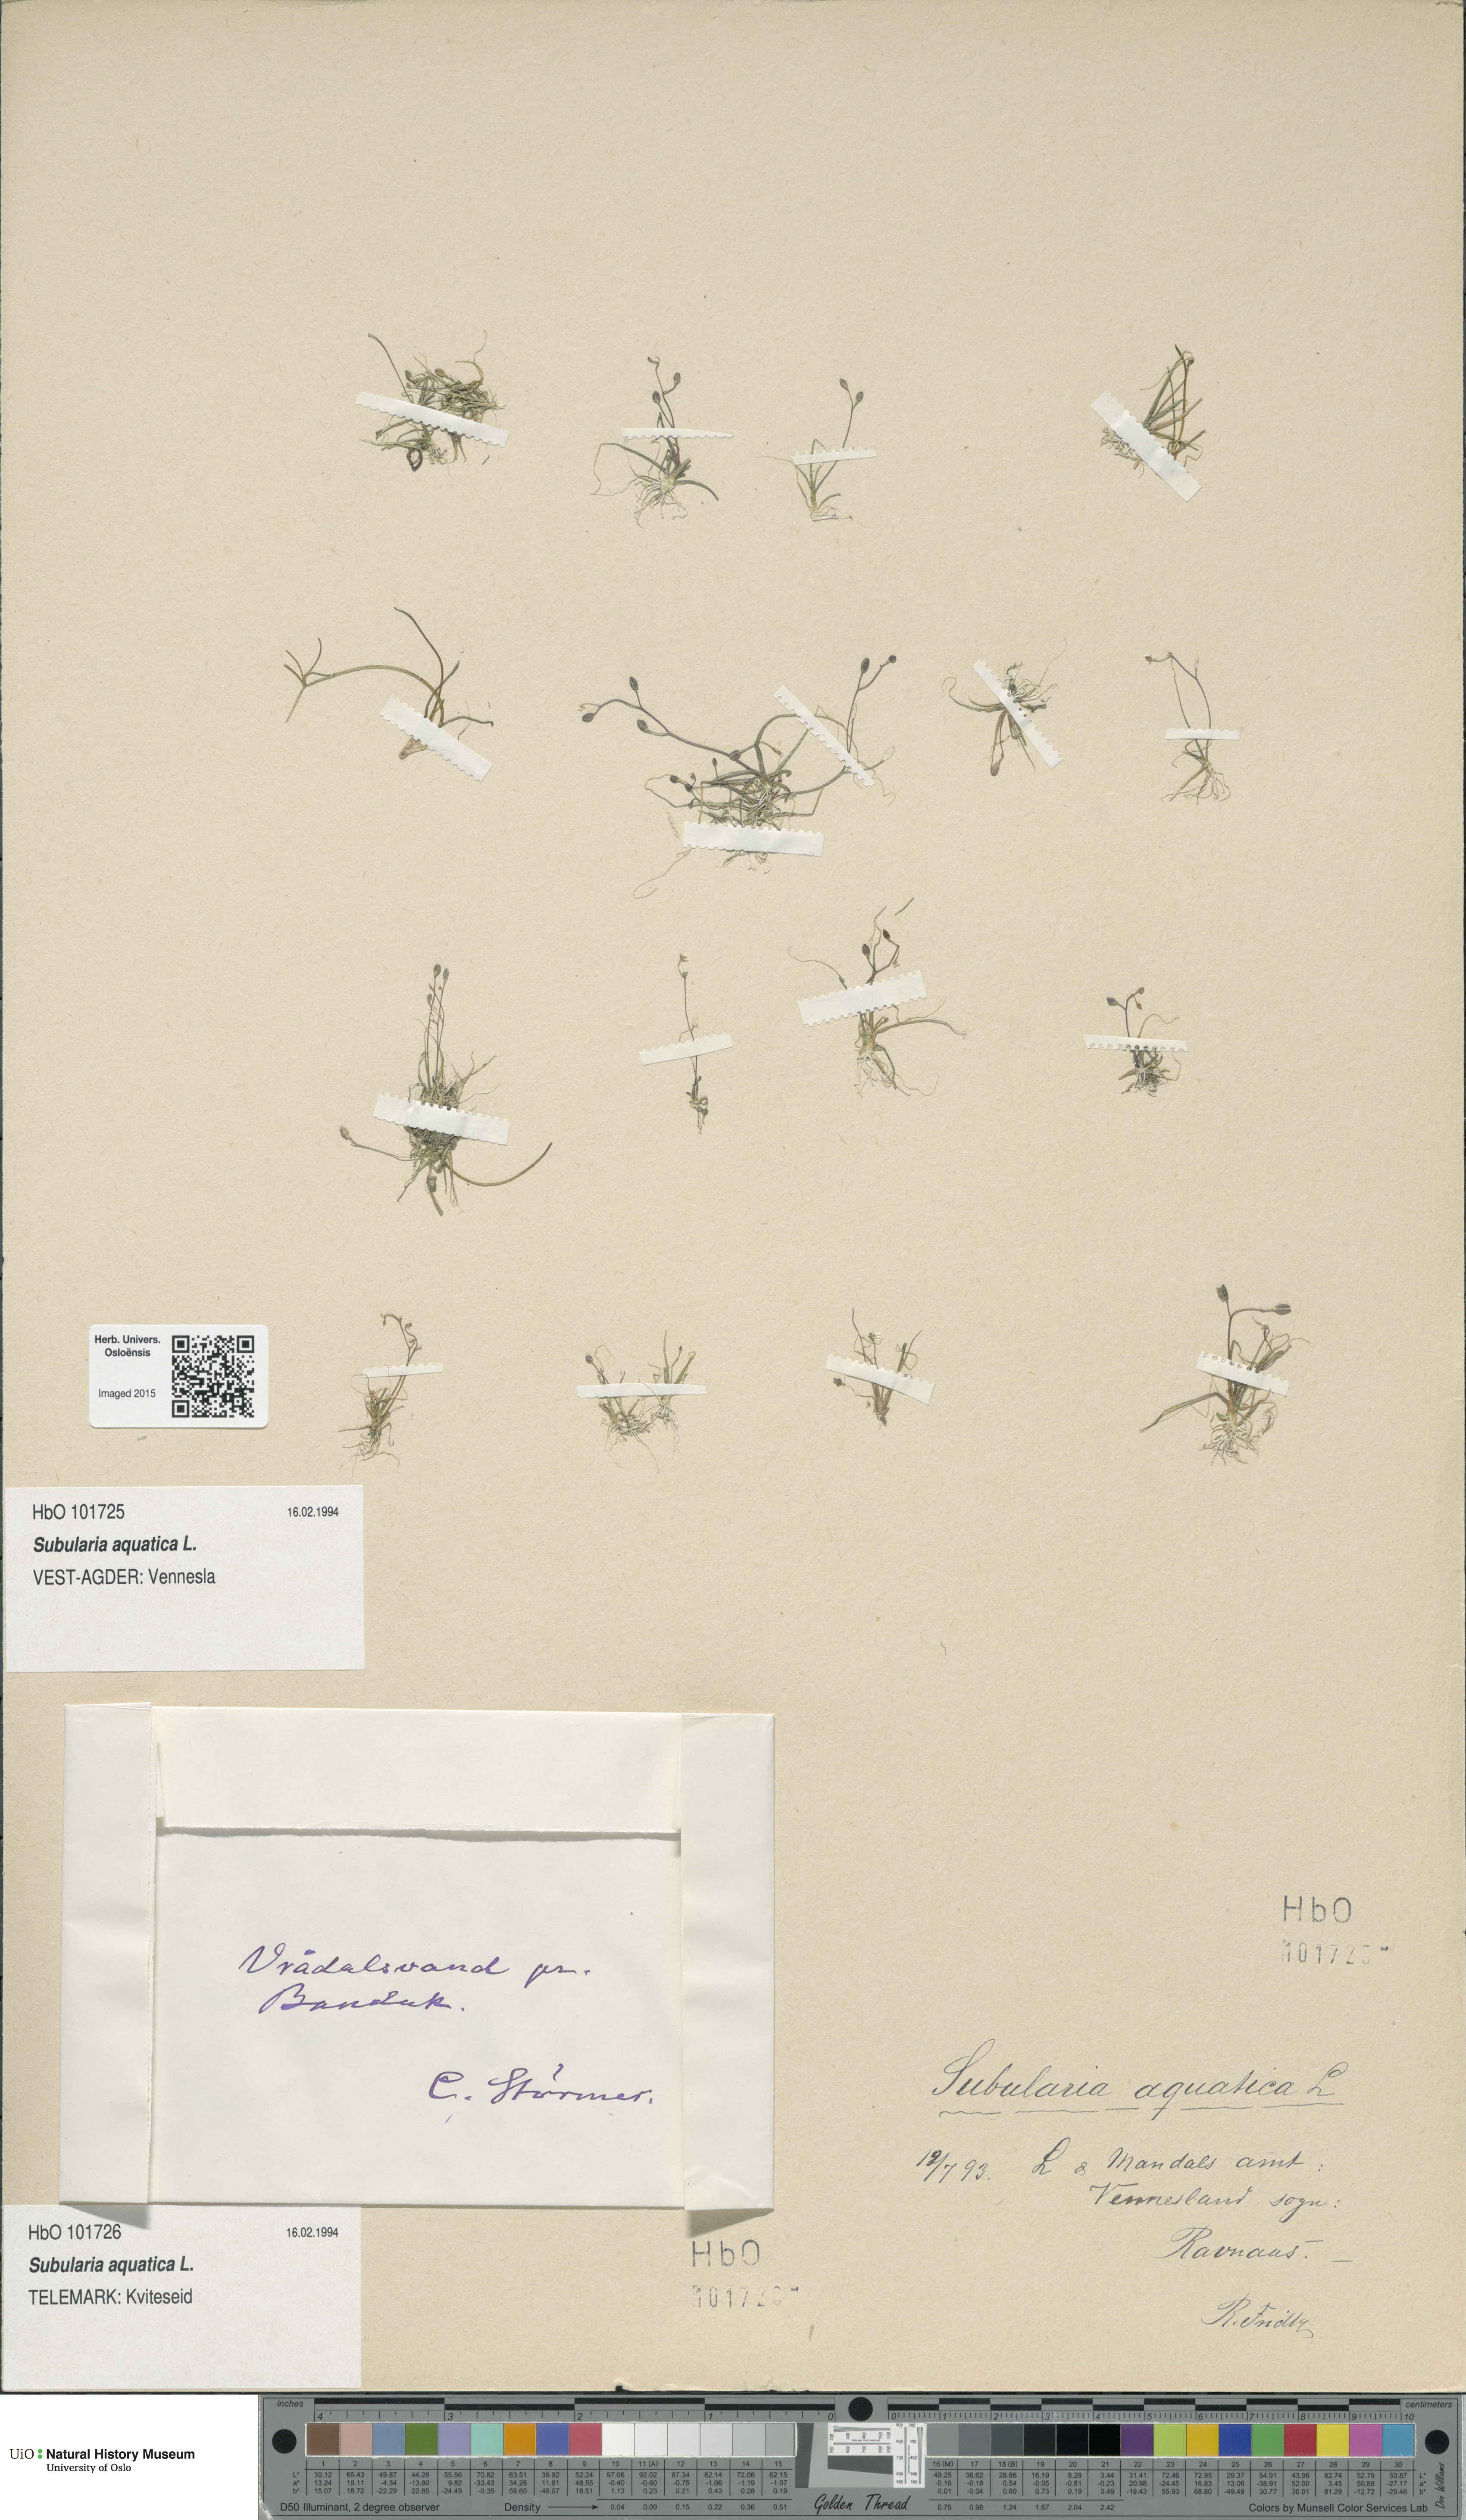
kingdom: Plantae
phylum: Tracheophyta
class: Magnoliopsida
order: Brassicales
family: Brassicaceae
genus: Subularia
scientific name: Subularia aquatica
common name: Awlwort
